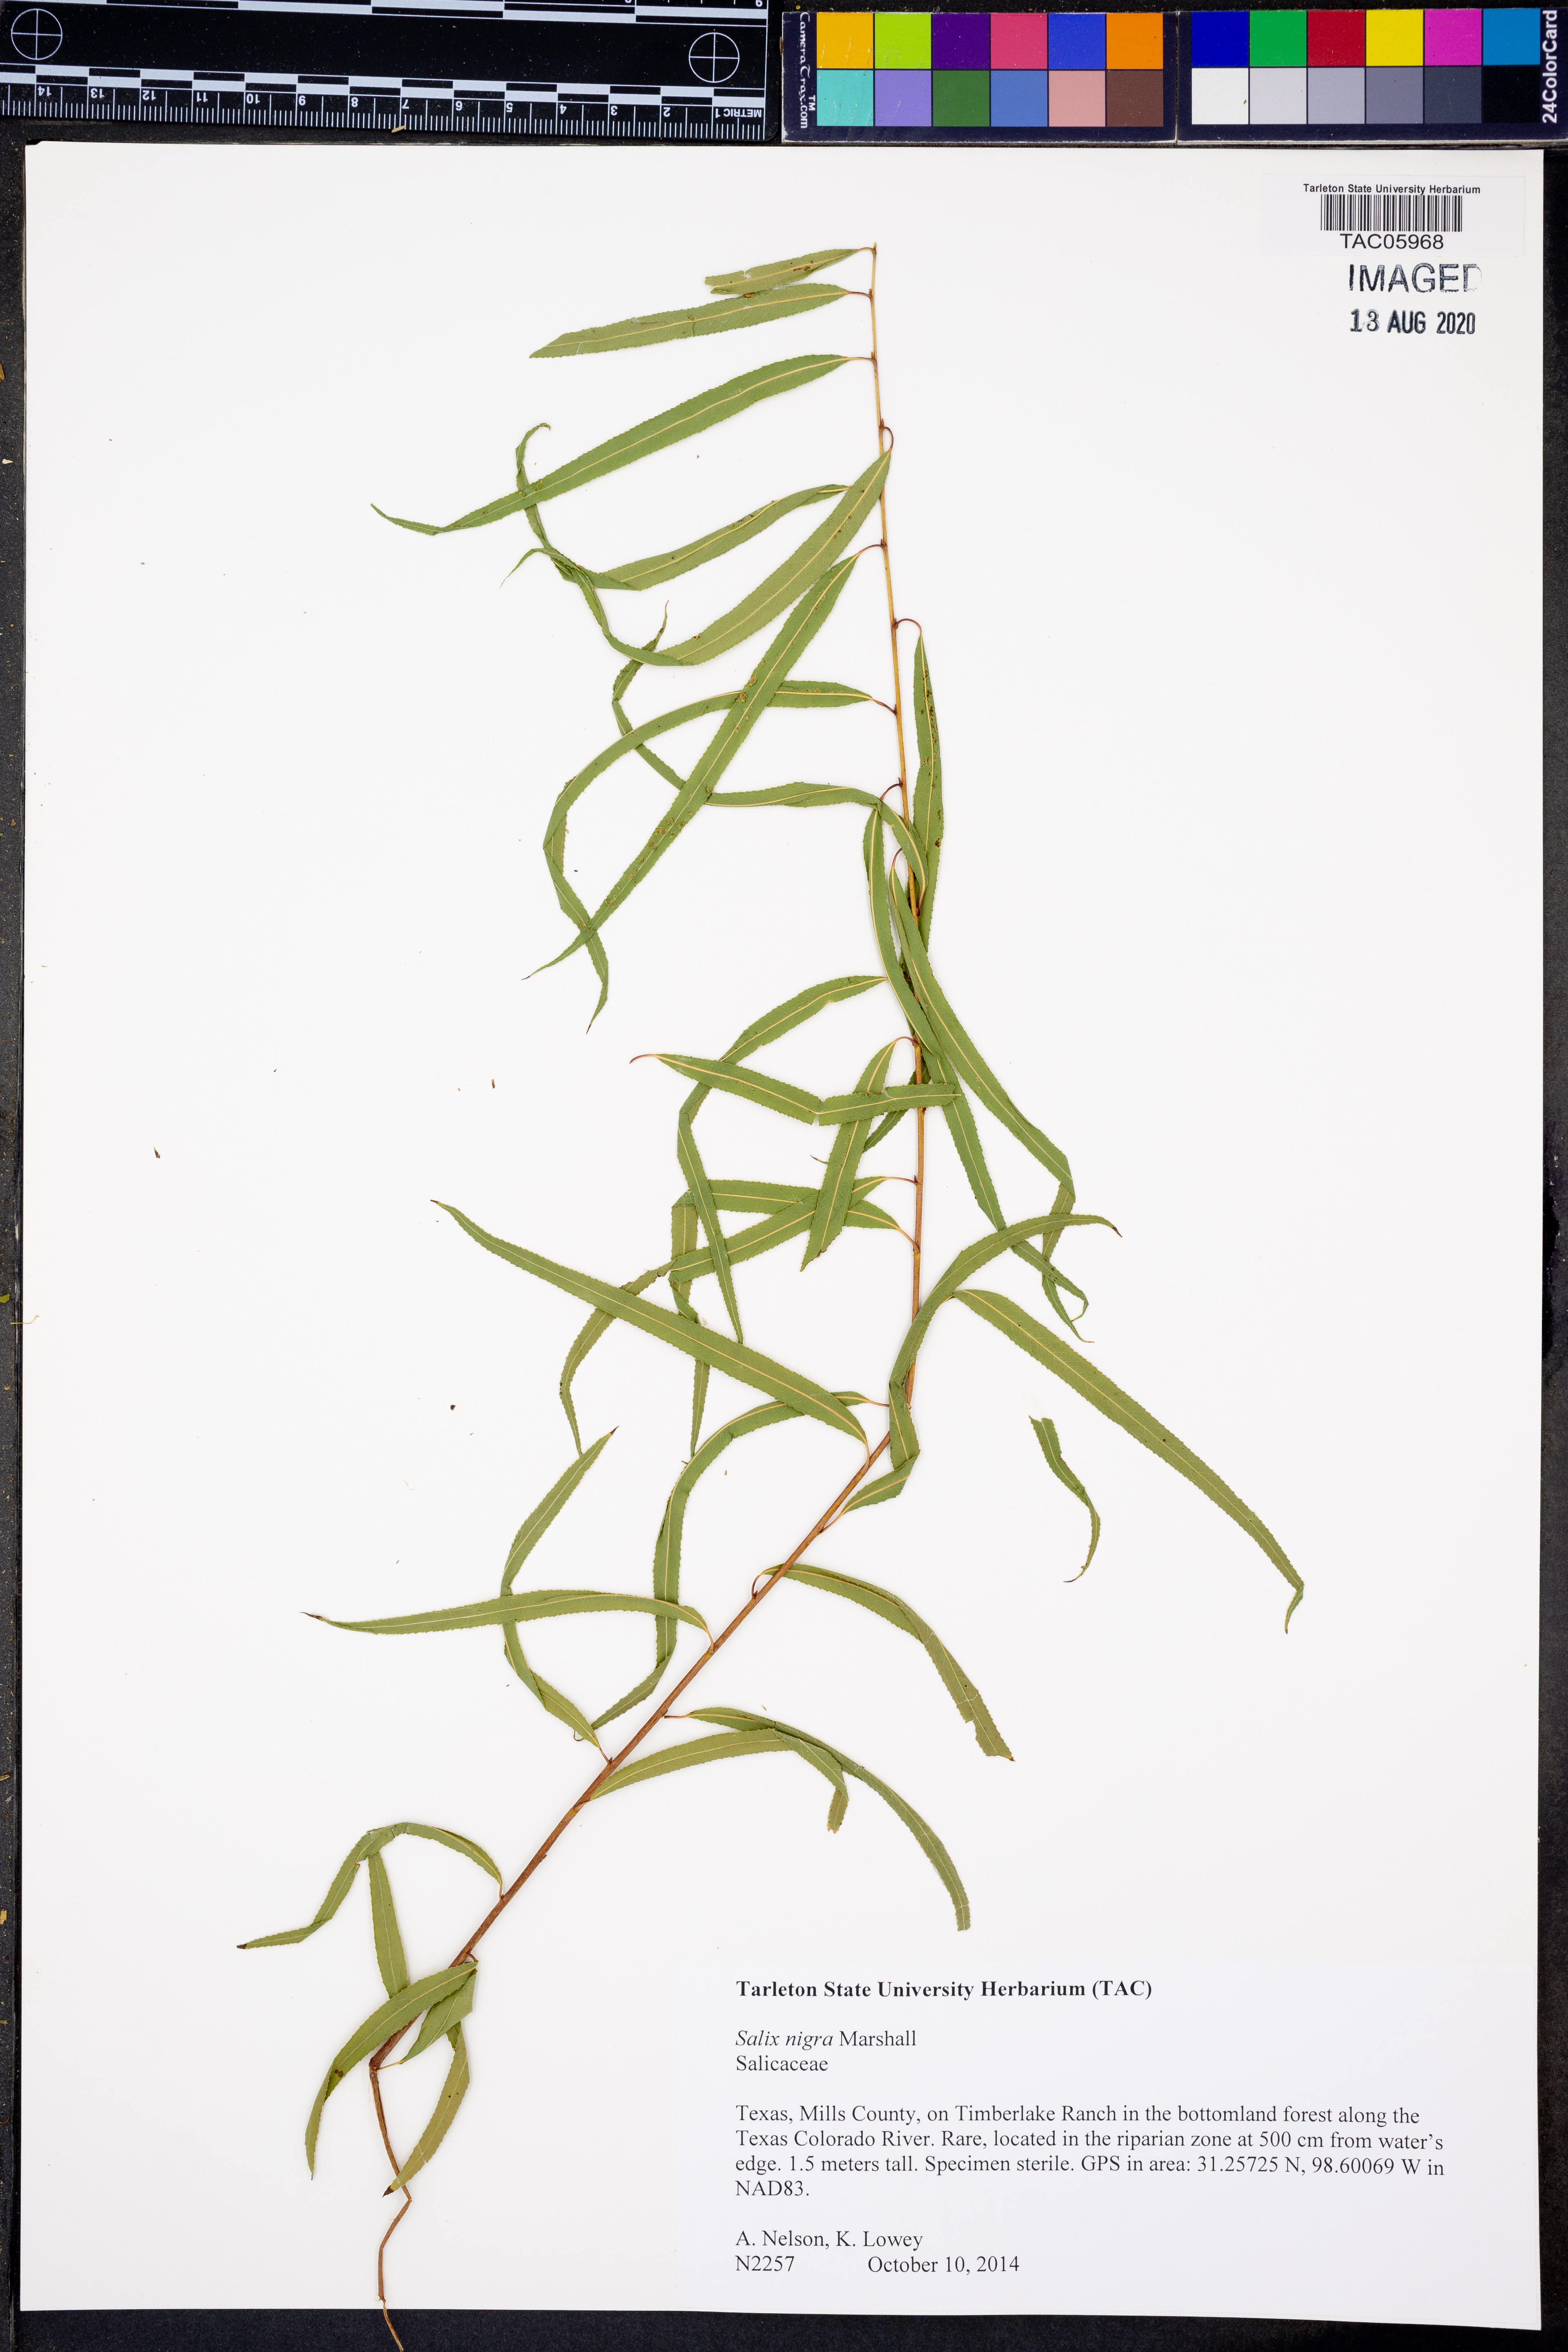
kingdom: Plantae
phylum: Tracheophyta
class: Magnoliopsida
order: Malpighiales
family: Salicaceae
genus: Salix
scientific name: Salix nigra
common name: Black willow
